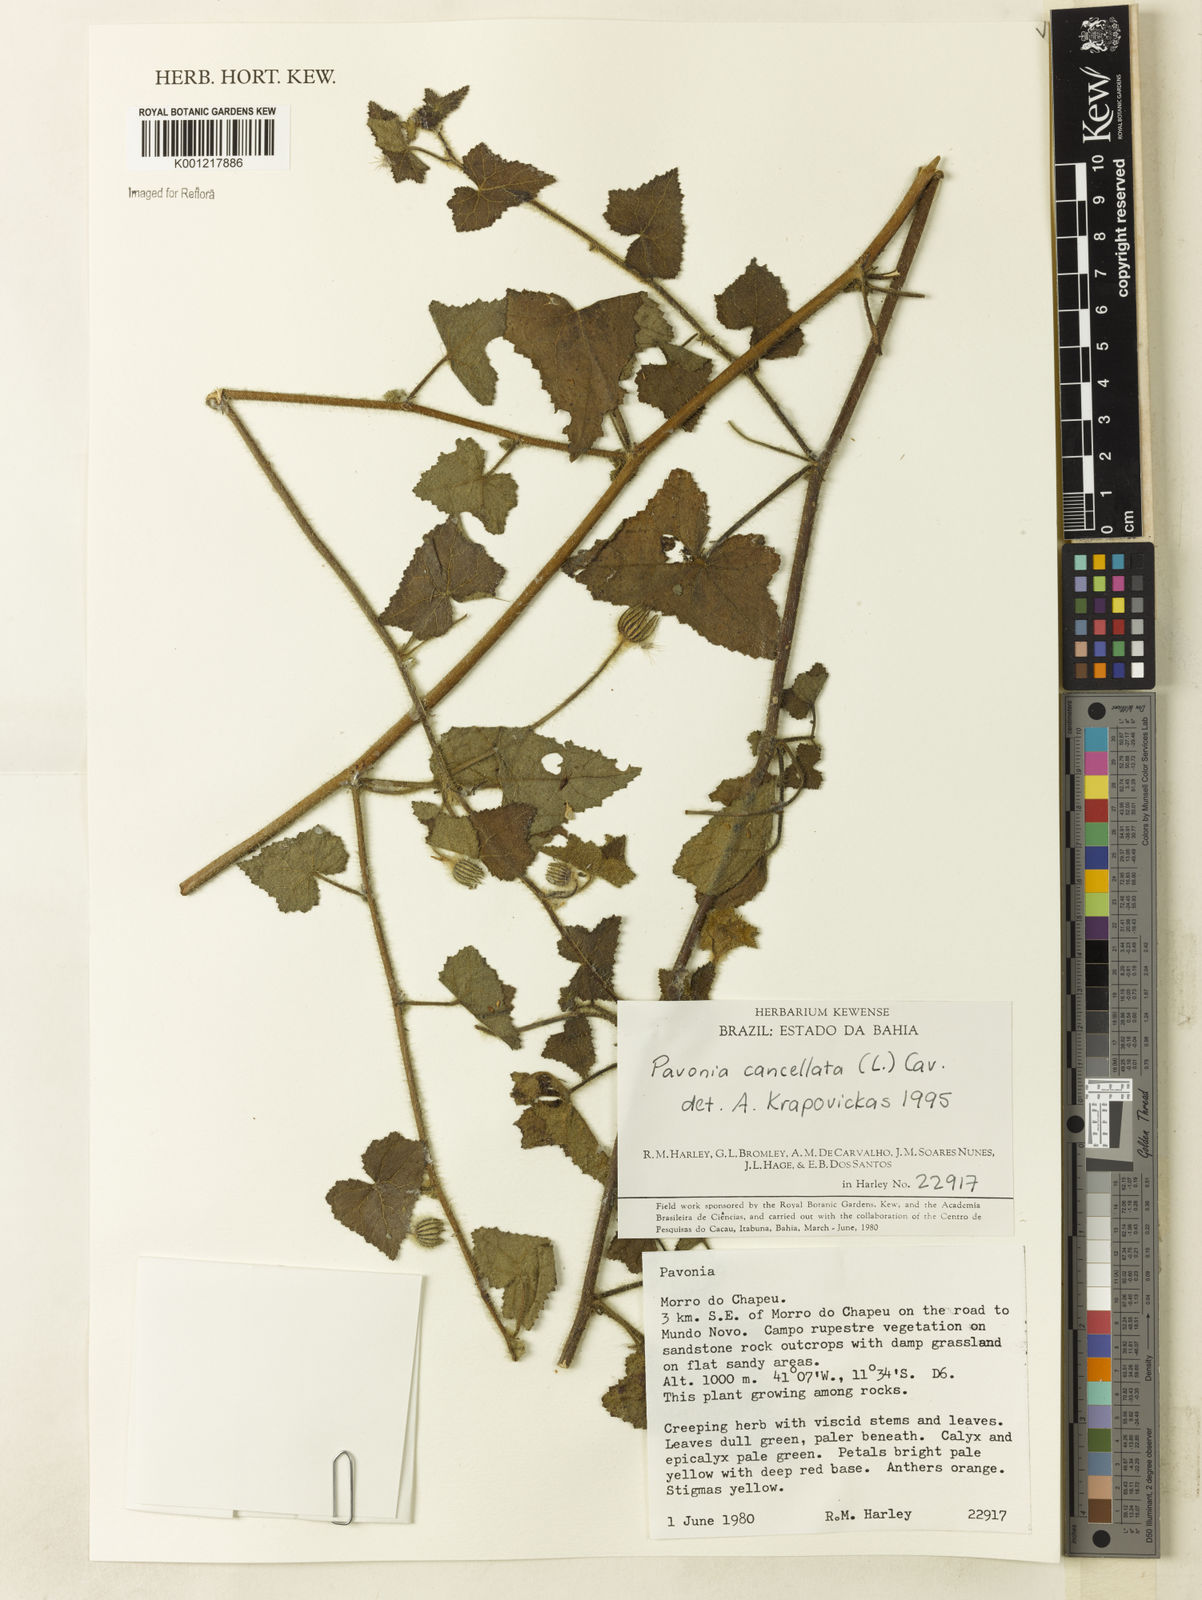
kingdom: Plantae
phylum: Tracheophyta
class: Magnoliopsida
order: Malvales
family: Malvaceae
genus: Pavonia
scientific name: Pavonia cancellata
